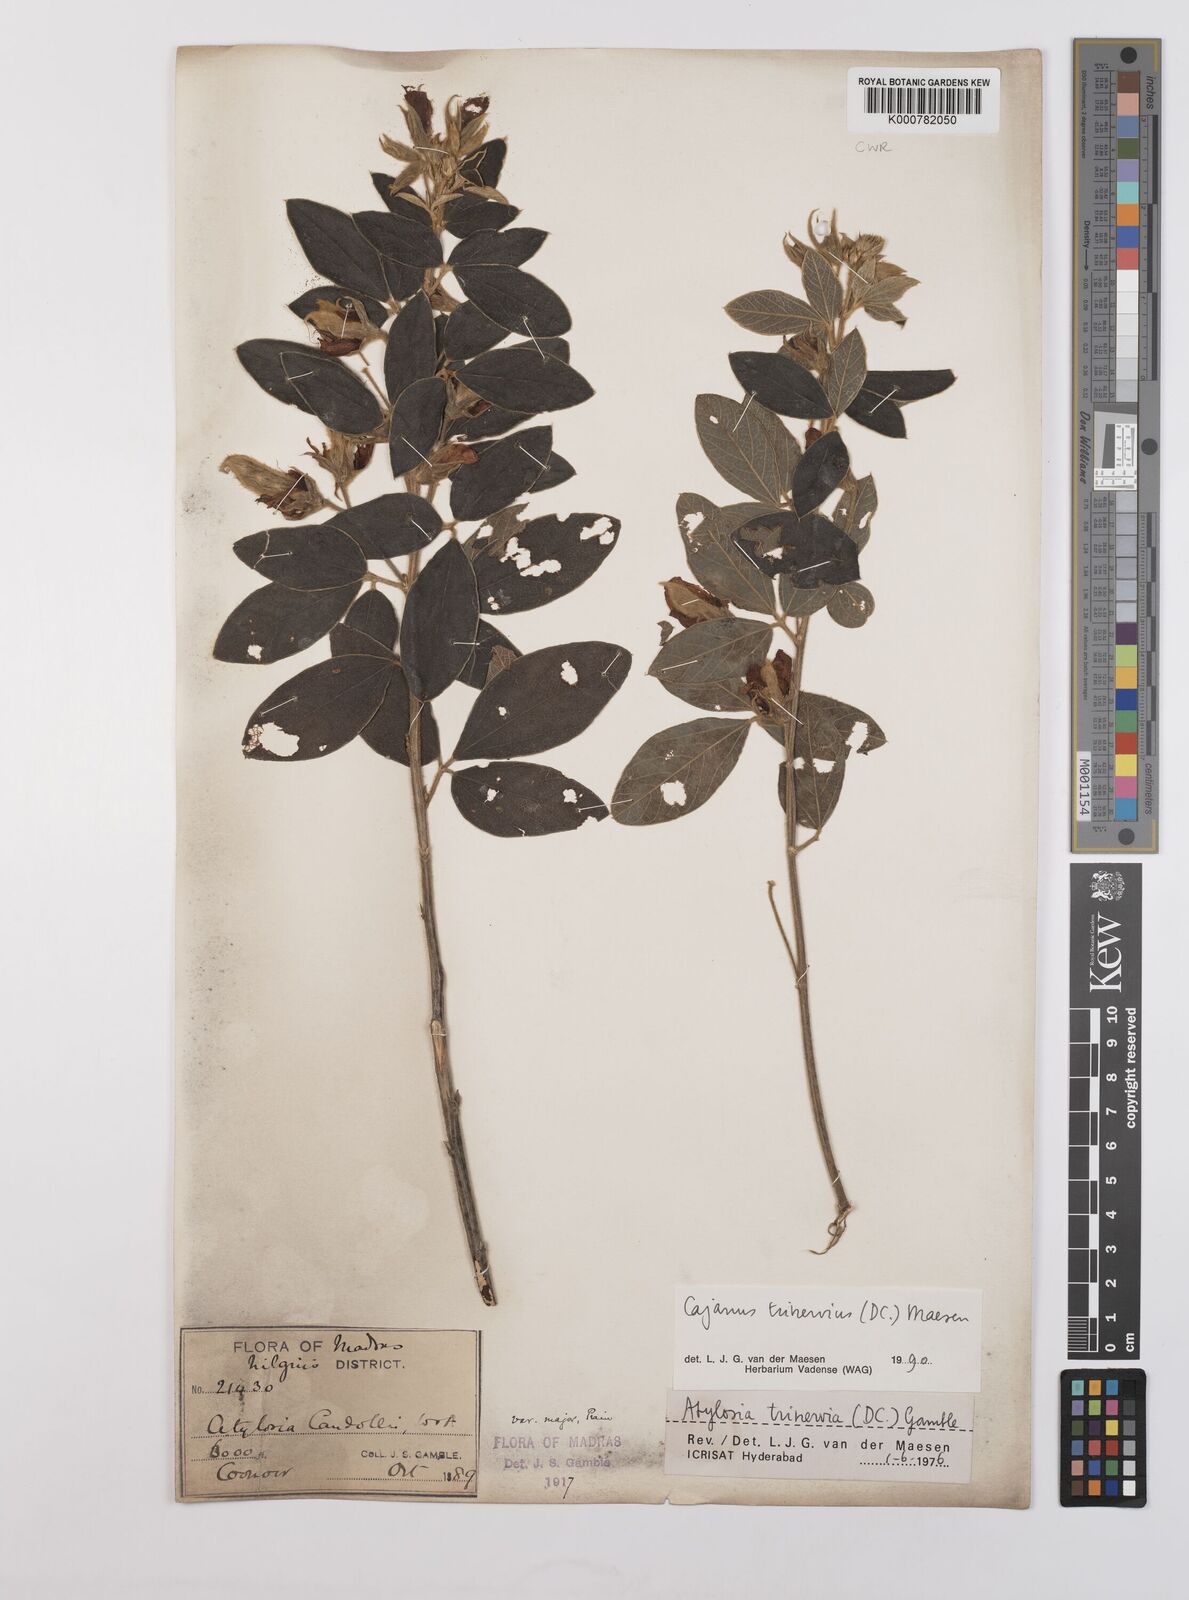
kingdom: Plantae
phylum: Tracheophyta
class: Magnoliopsida
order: Fabales
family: Fabaceae
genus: Cajanus
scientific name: Cajanus trinervius
